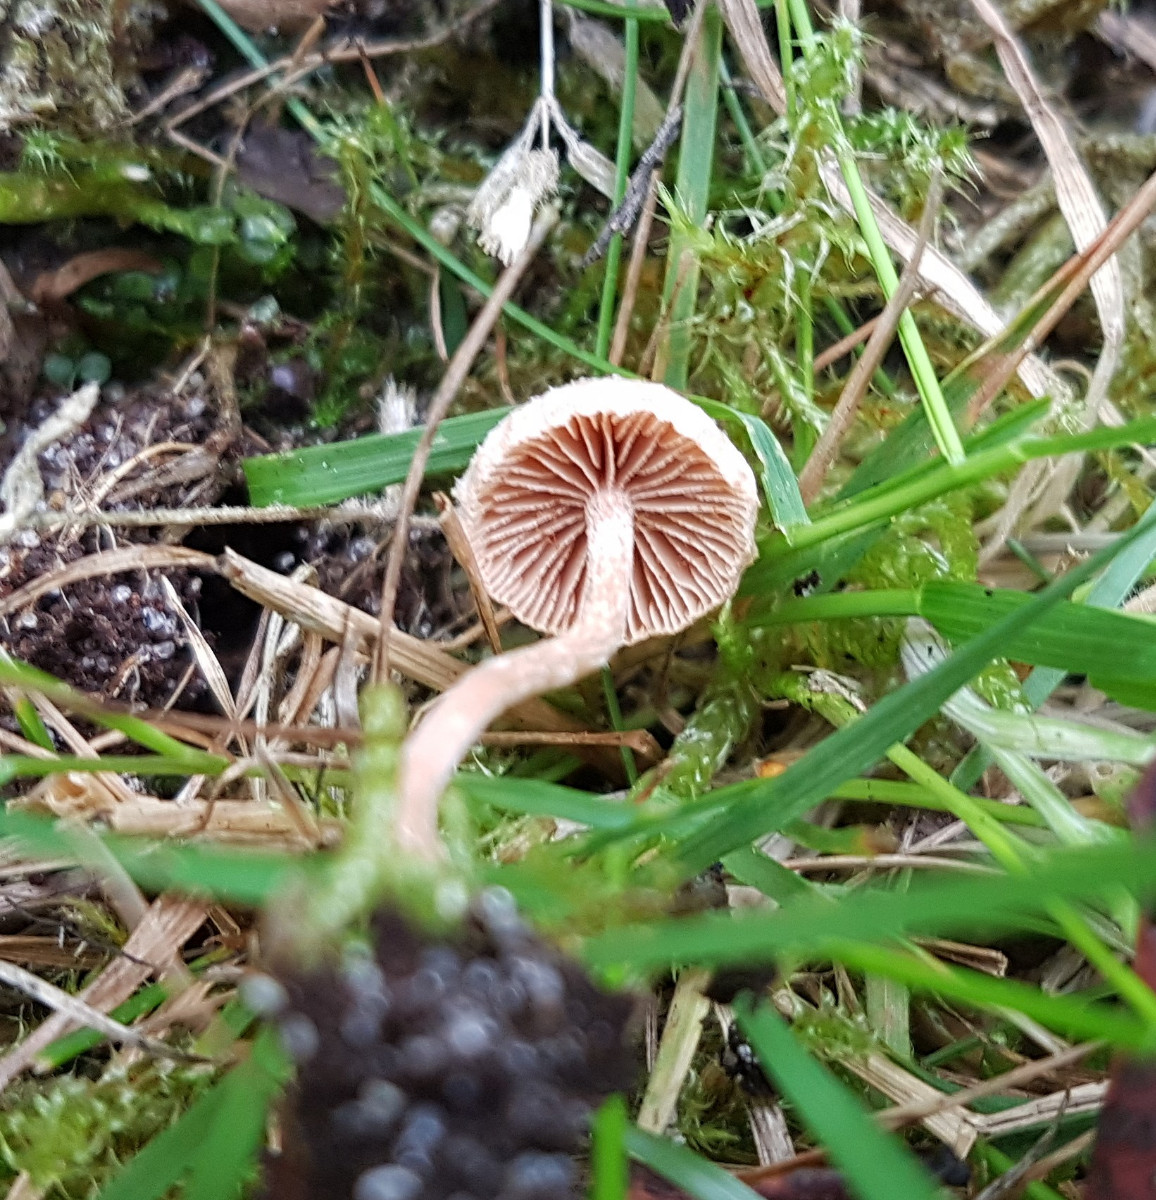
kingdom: Fungi
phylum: Basidiomycota
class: Agaricomycetes
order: Agaricales
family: Tubariaceae
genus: Tubaria
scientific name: Tubaria conspersa
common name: bleg fnughat
